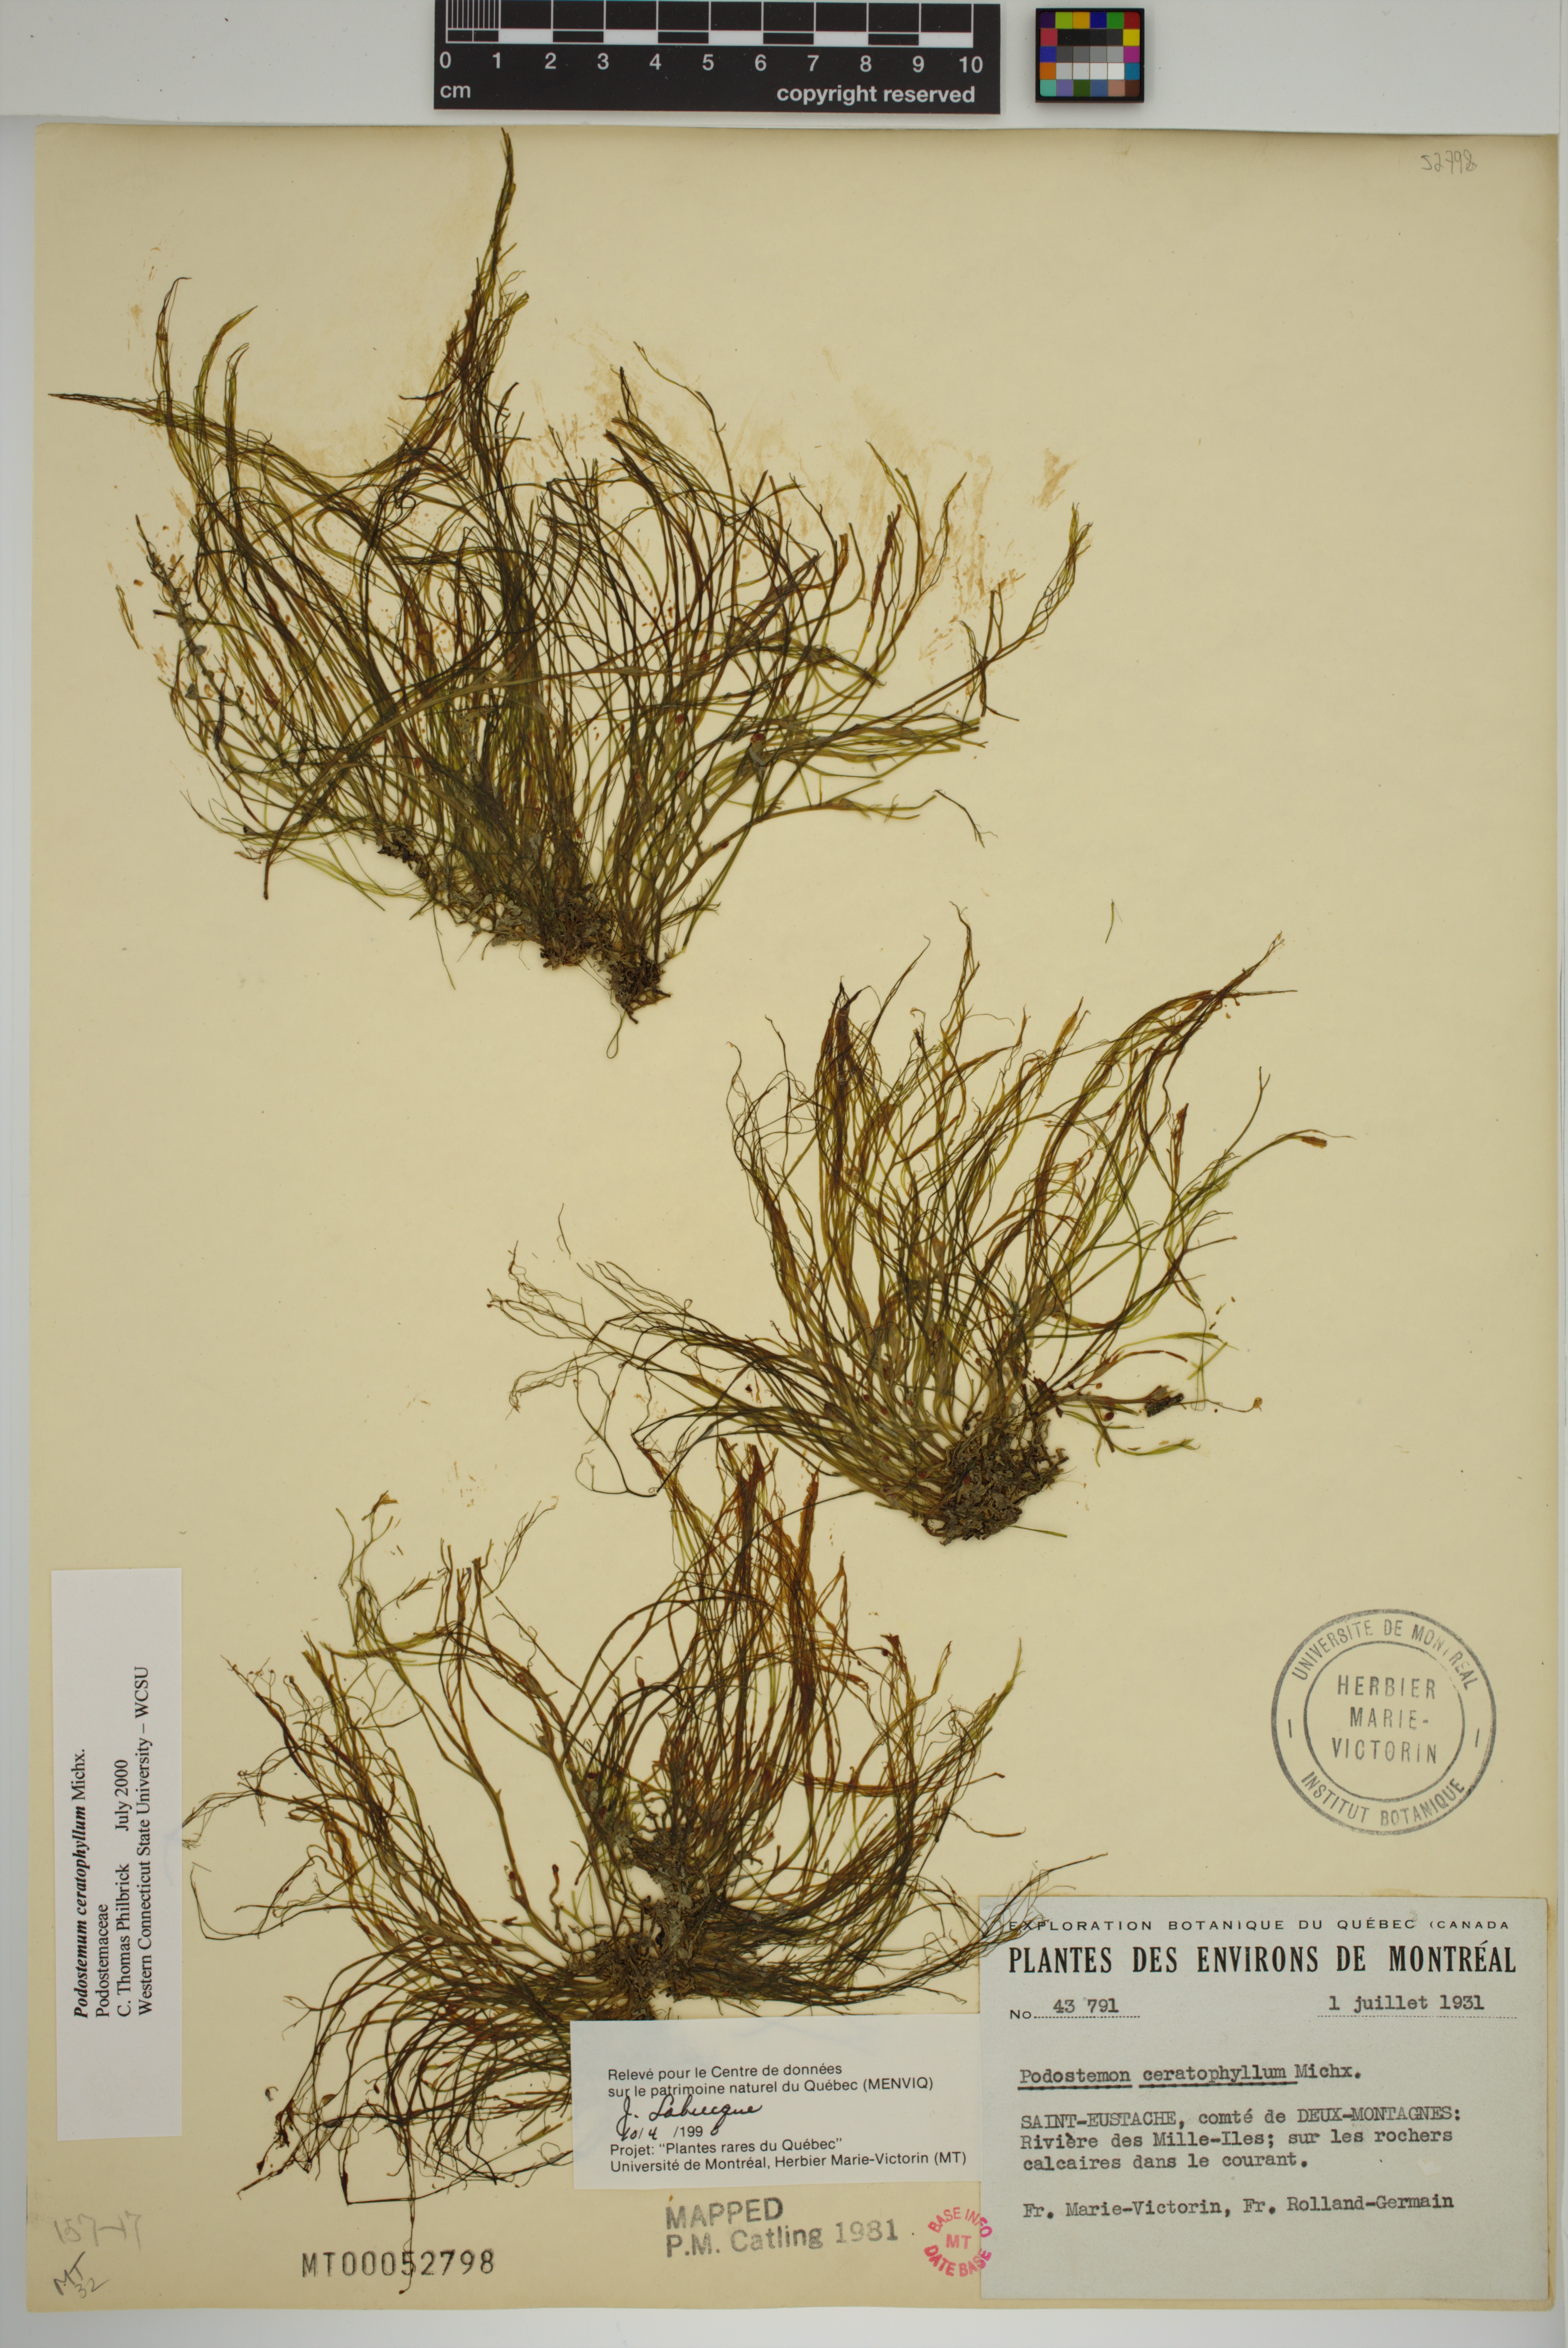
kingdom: Plantae
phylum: Tracheophyta
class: Magnoliopsida
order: Malpighiales
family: Podostemaceae
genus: Podostemum
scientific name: Podostemum ceratophyllum
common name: Horn-leaved riverweed
